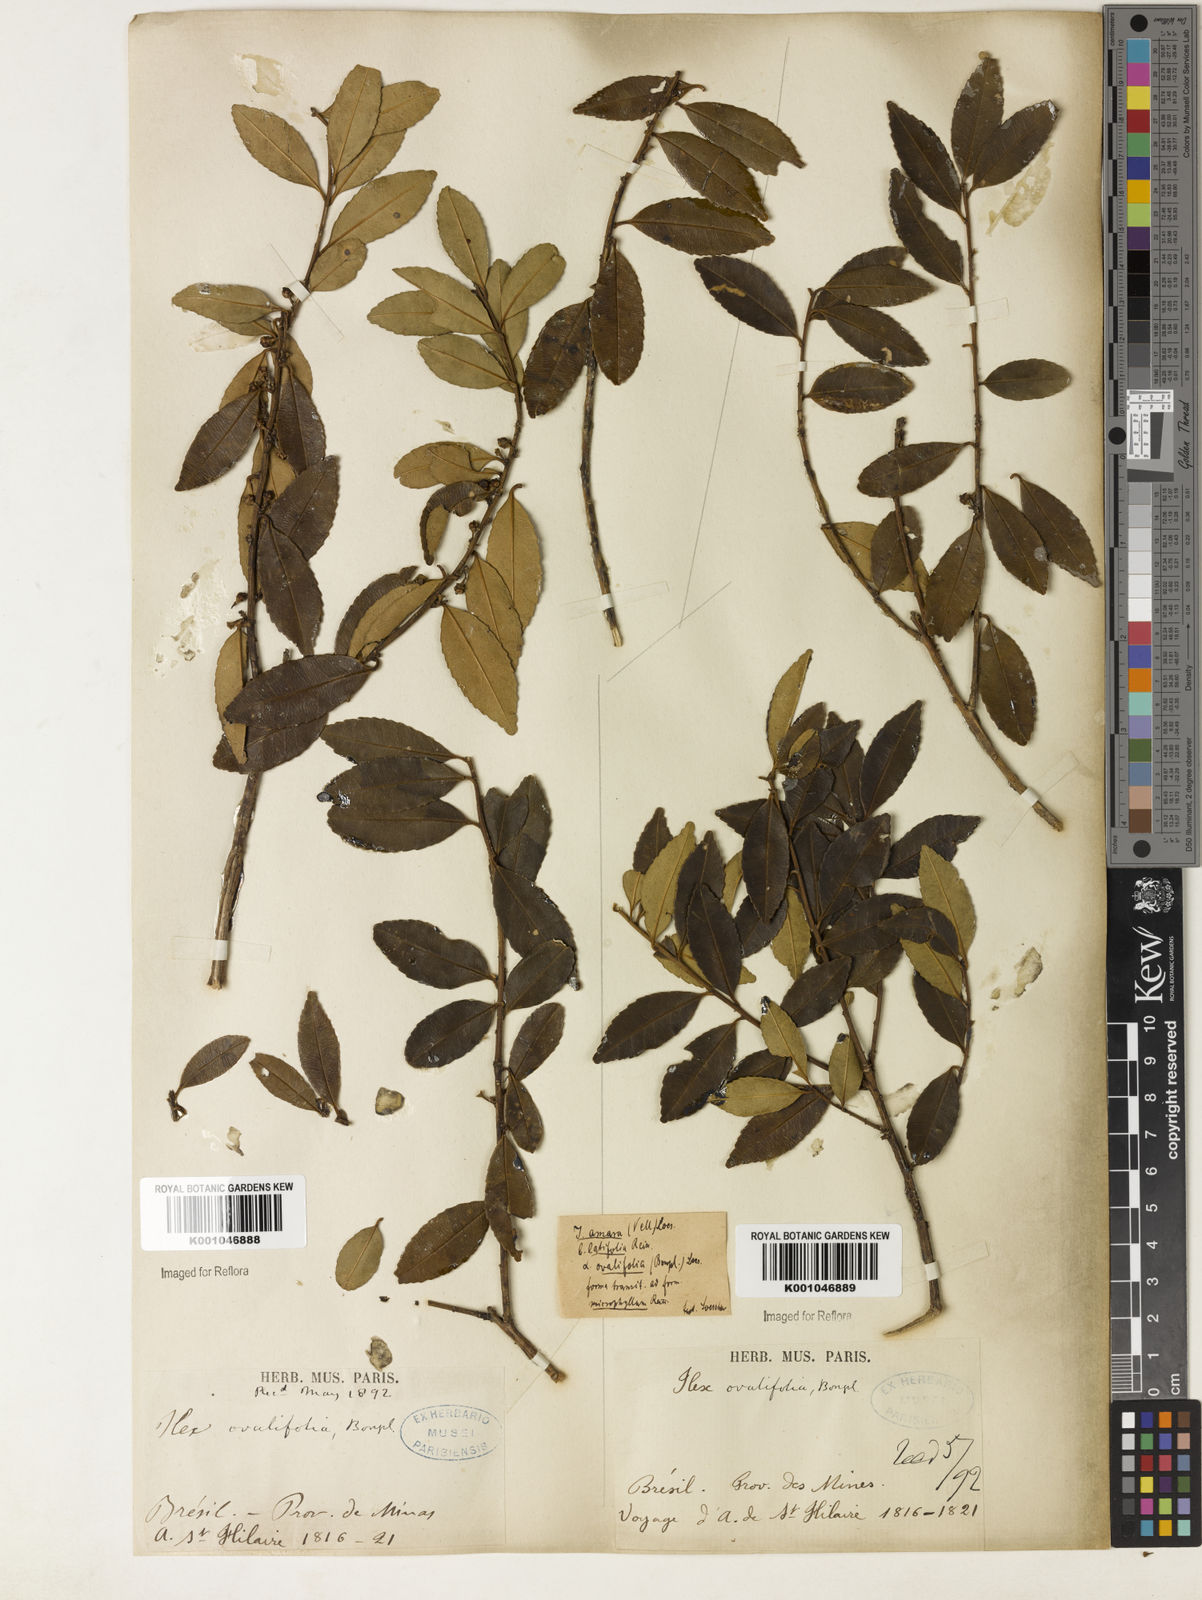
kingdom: Plantae
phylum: Tracheophyta
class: Magnoliopsida
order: Aquifoliales
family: Aquifoliaceae
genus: Ilex
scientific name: Ilex
